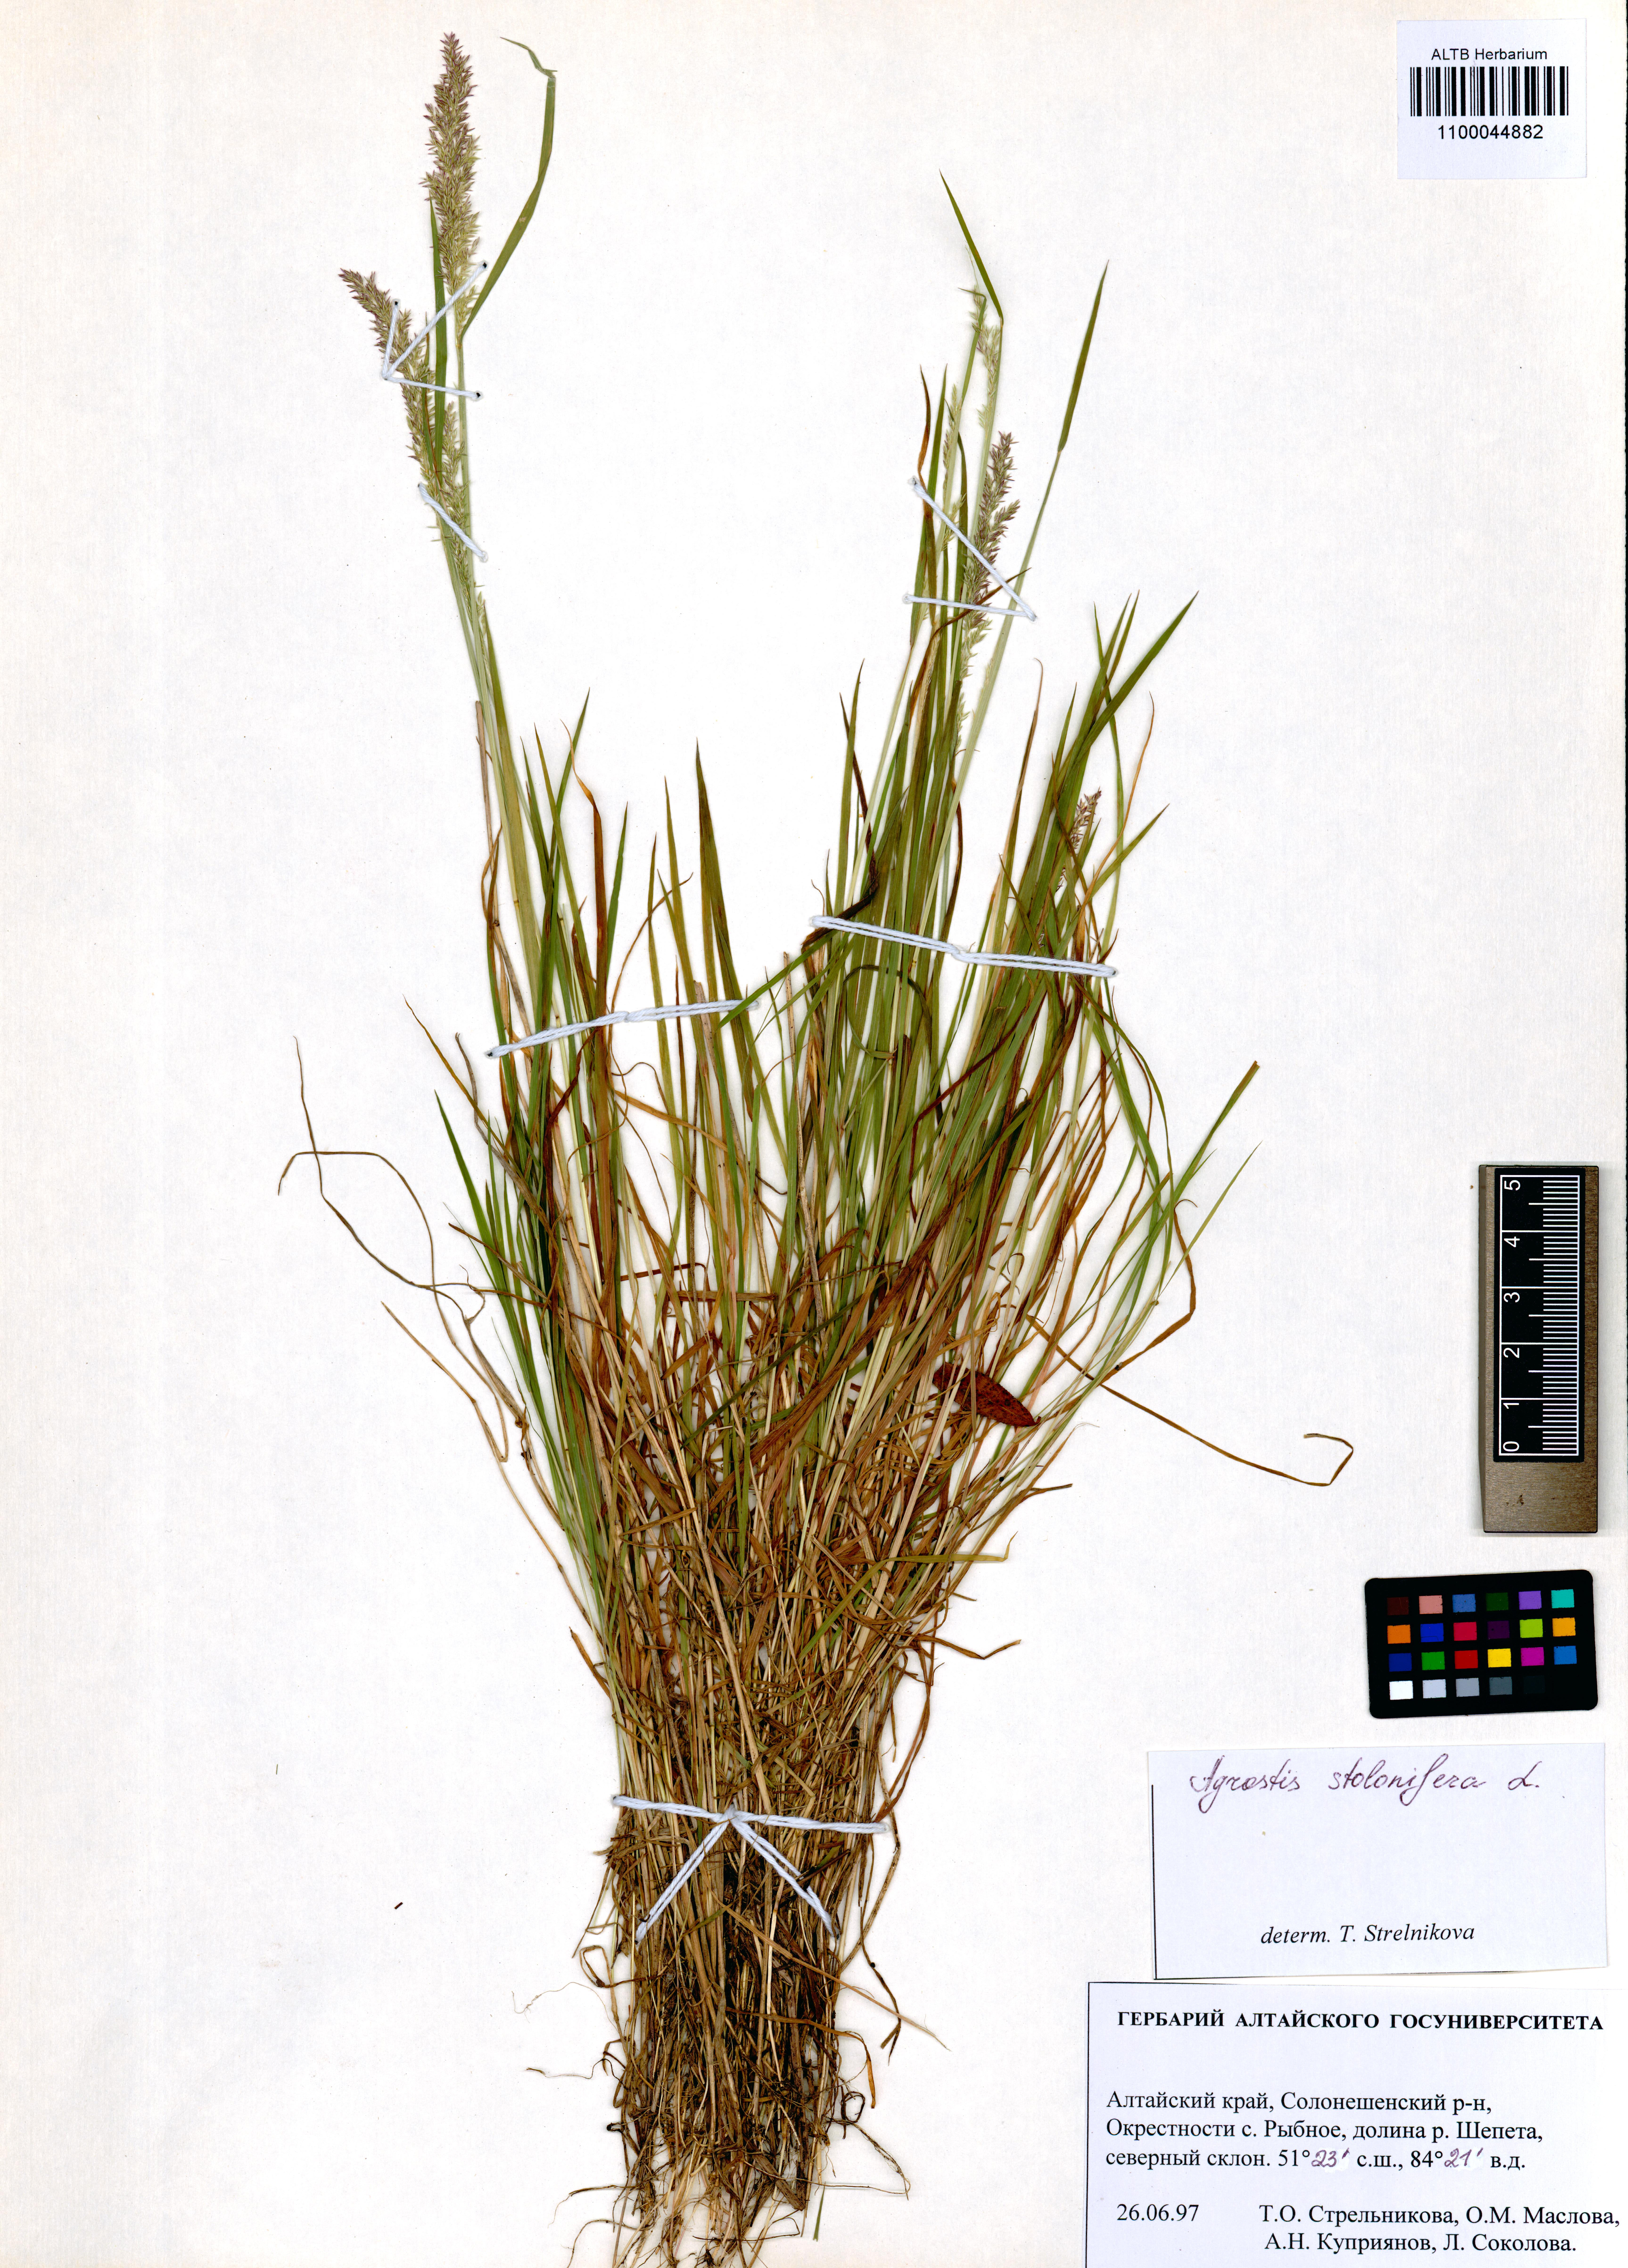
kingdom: Plantae
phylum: Tracheophyta
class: Liliopsida
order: Poales
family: Poaceae
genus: Agrostis
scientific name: Agrostis capillaris
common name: Colonial bentgrass
